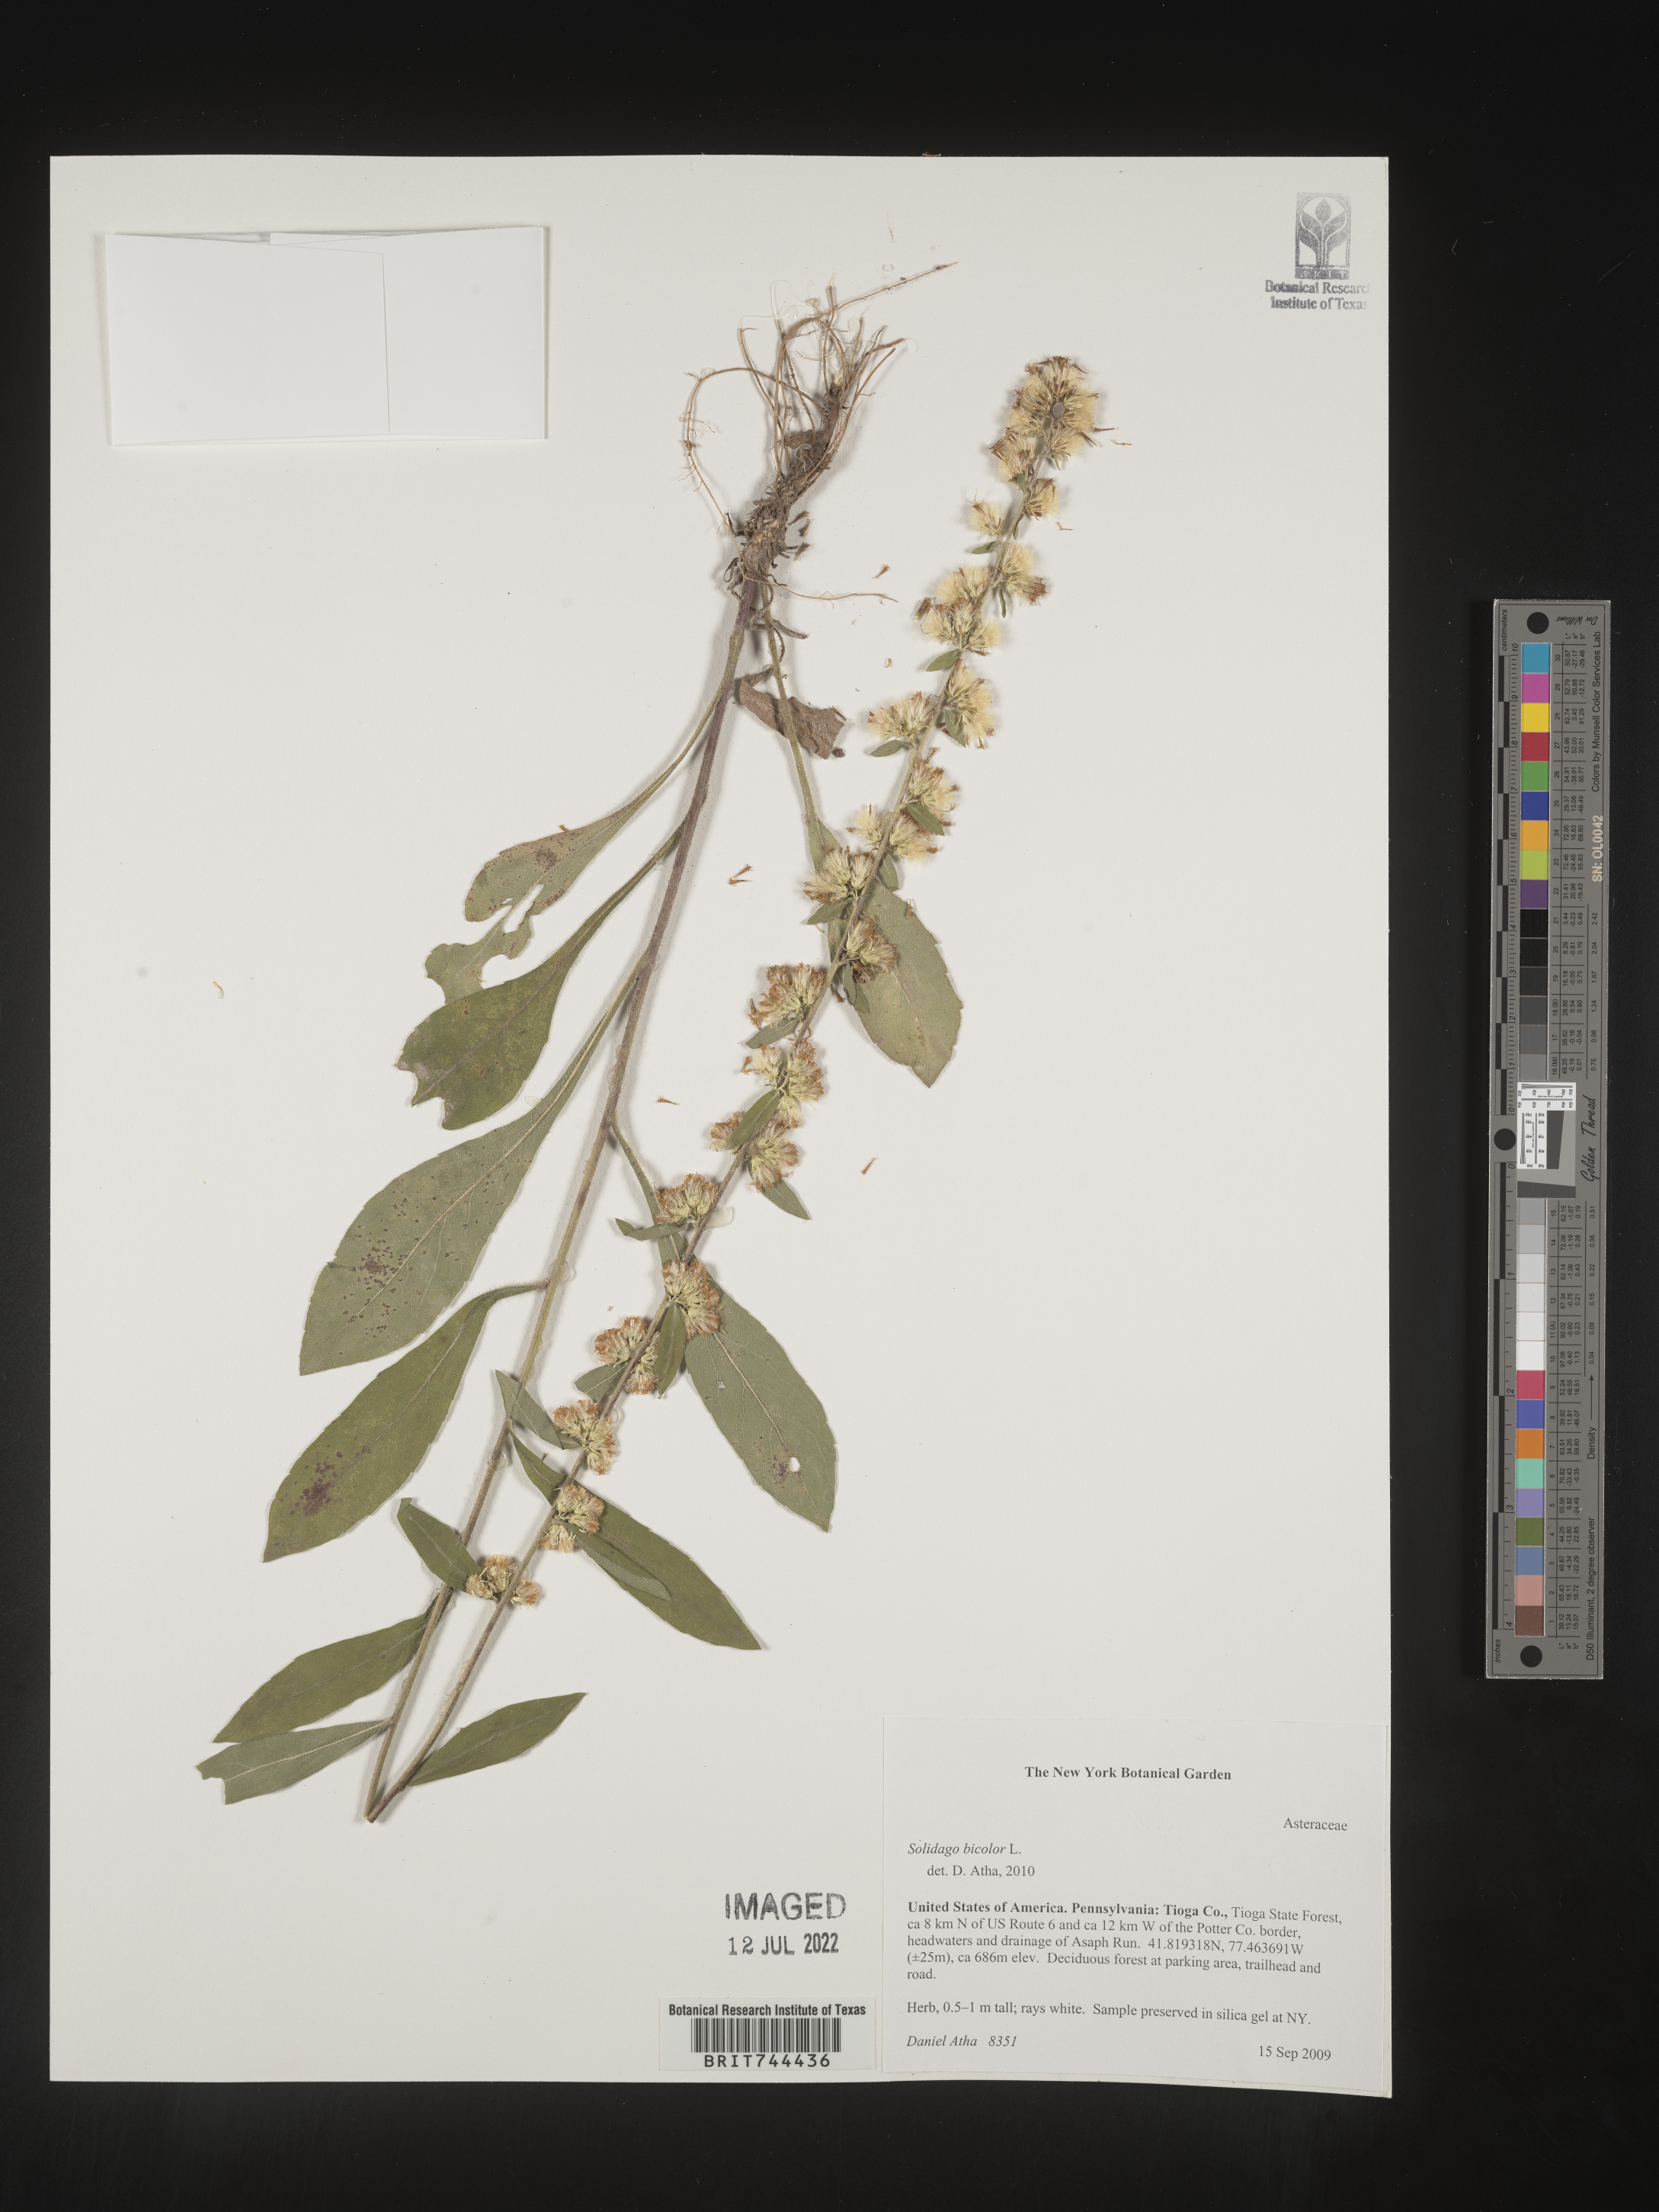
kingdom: Plantae
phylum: Tracheophyta
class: Magnoliopsida
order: Asterales
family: Asteraceae
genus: Solidago
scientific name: Solidago bicolor
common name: Silverrod
